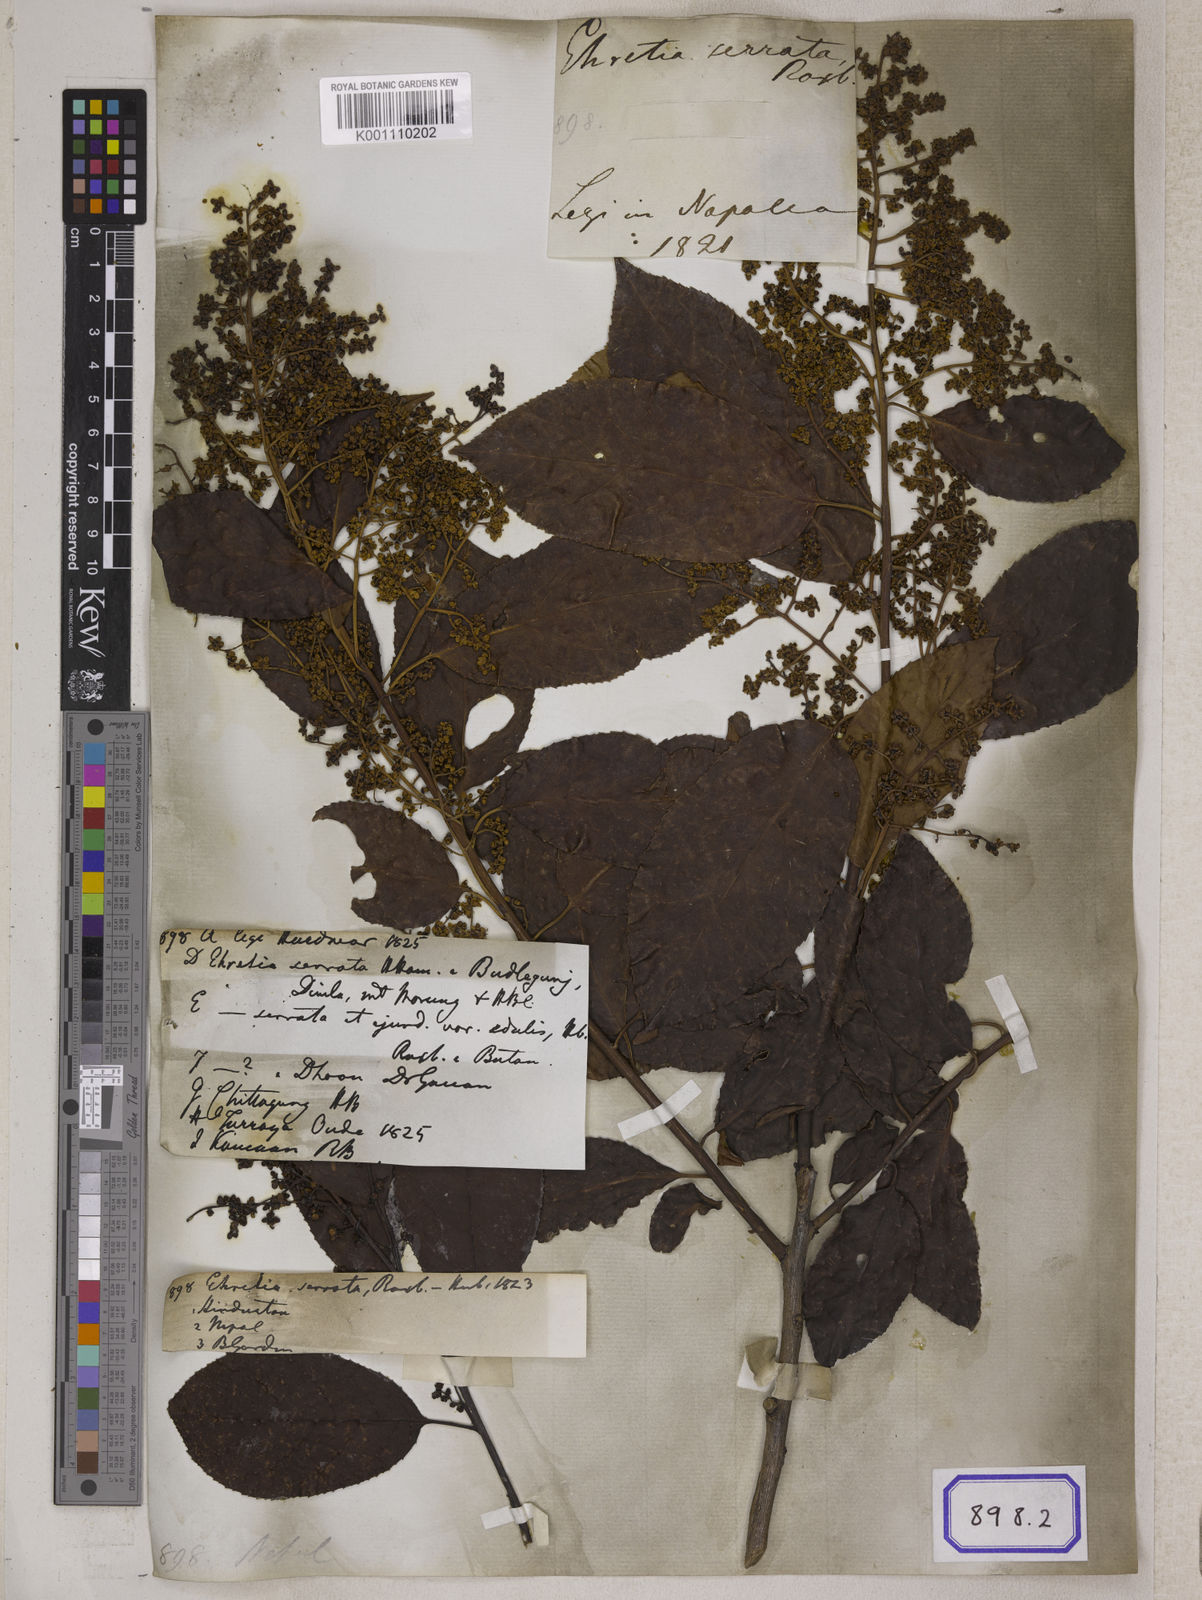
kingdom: Plantae
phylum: Tracheophyta
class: Magnoliopsida
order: Boraginales
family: Ehretiaceae
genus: Ehretia
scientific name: Ehretia acuminata
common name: Kodo wood
